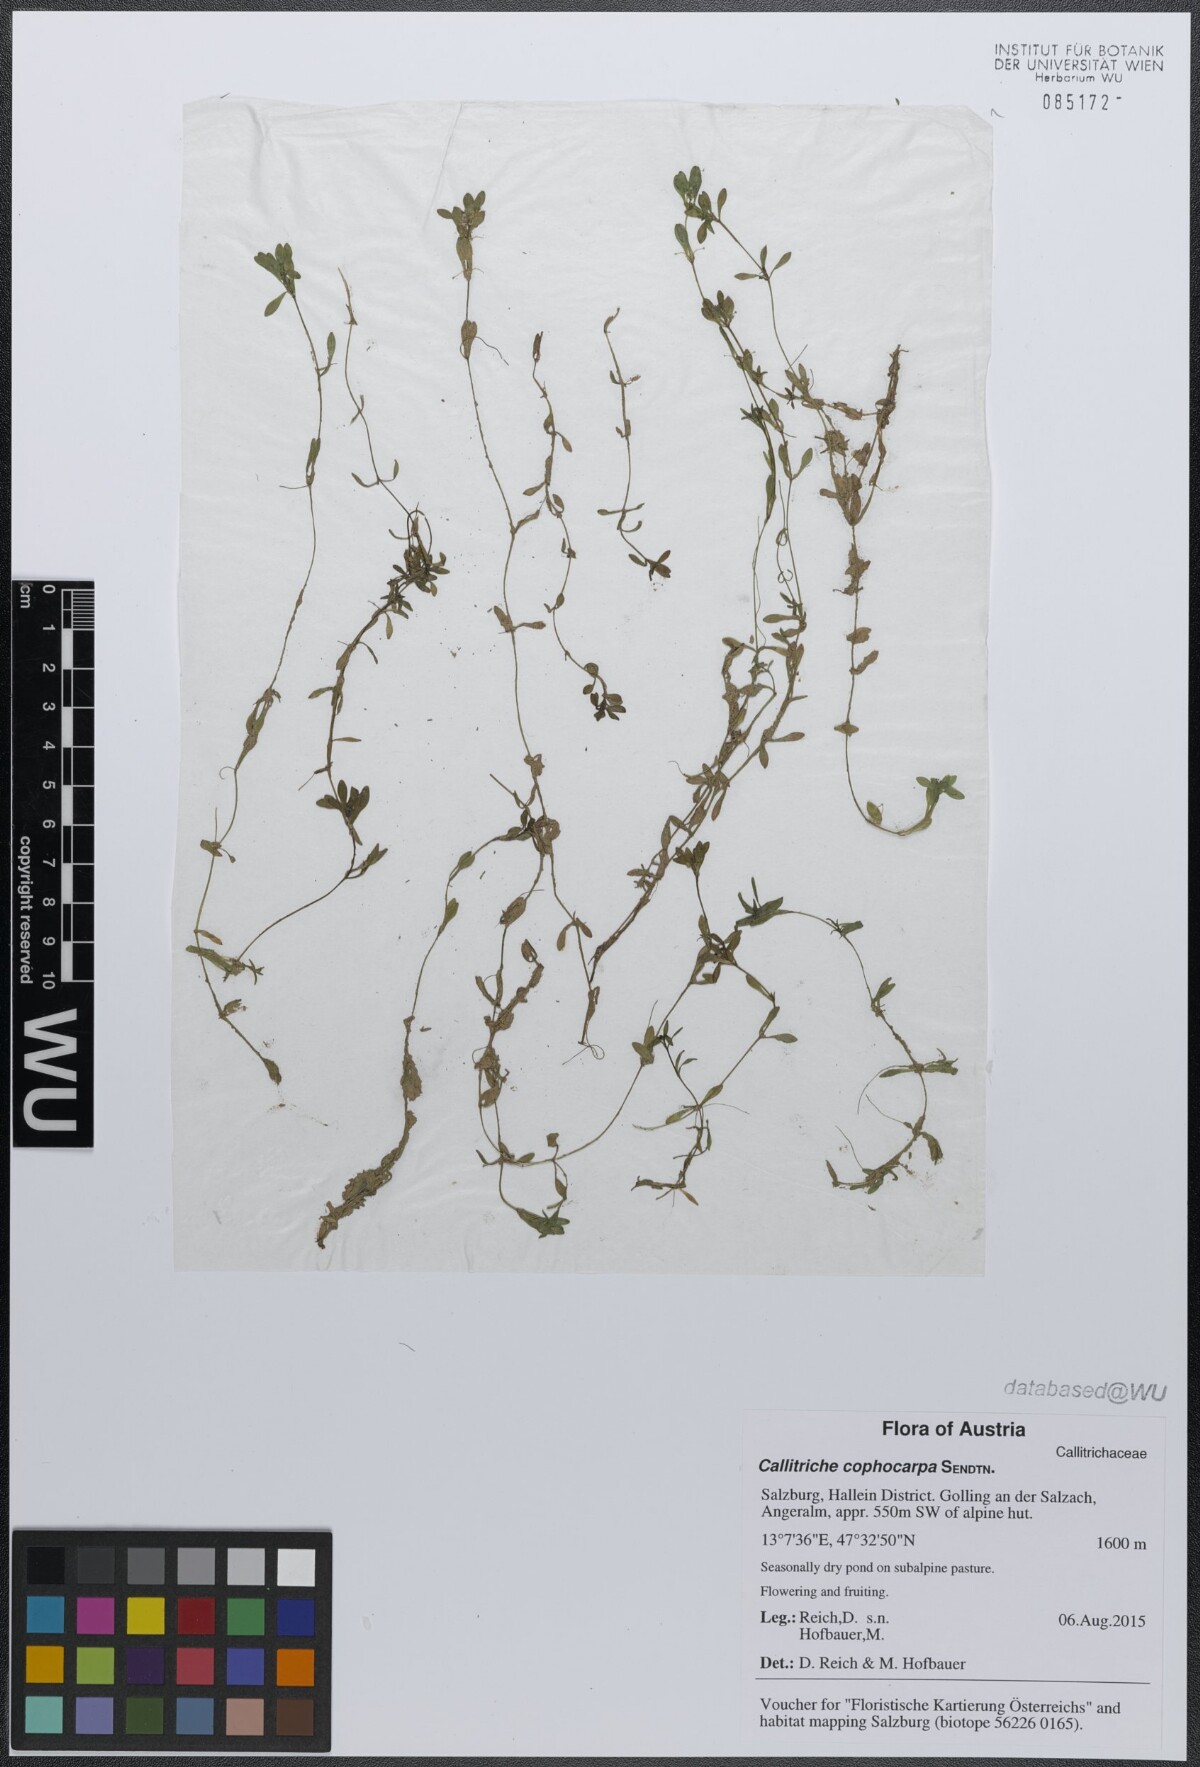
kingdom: Plantae
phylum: Tracheophyta
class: Magnoliopsida
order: Lamiales
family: Plantaginaceae
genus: Callitriche
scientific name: Callitriche cophocarpa
